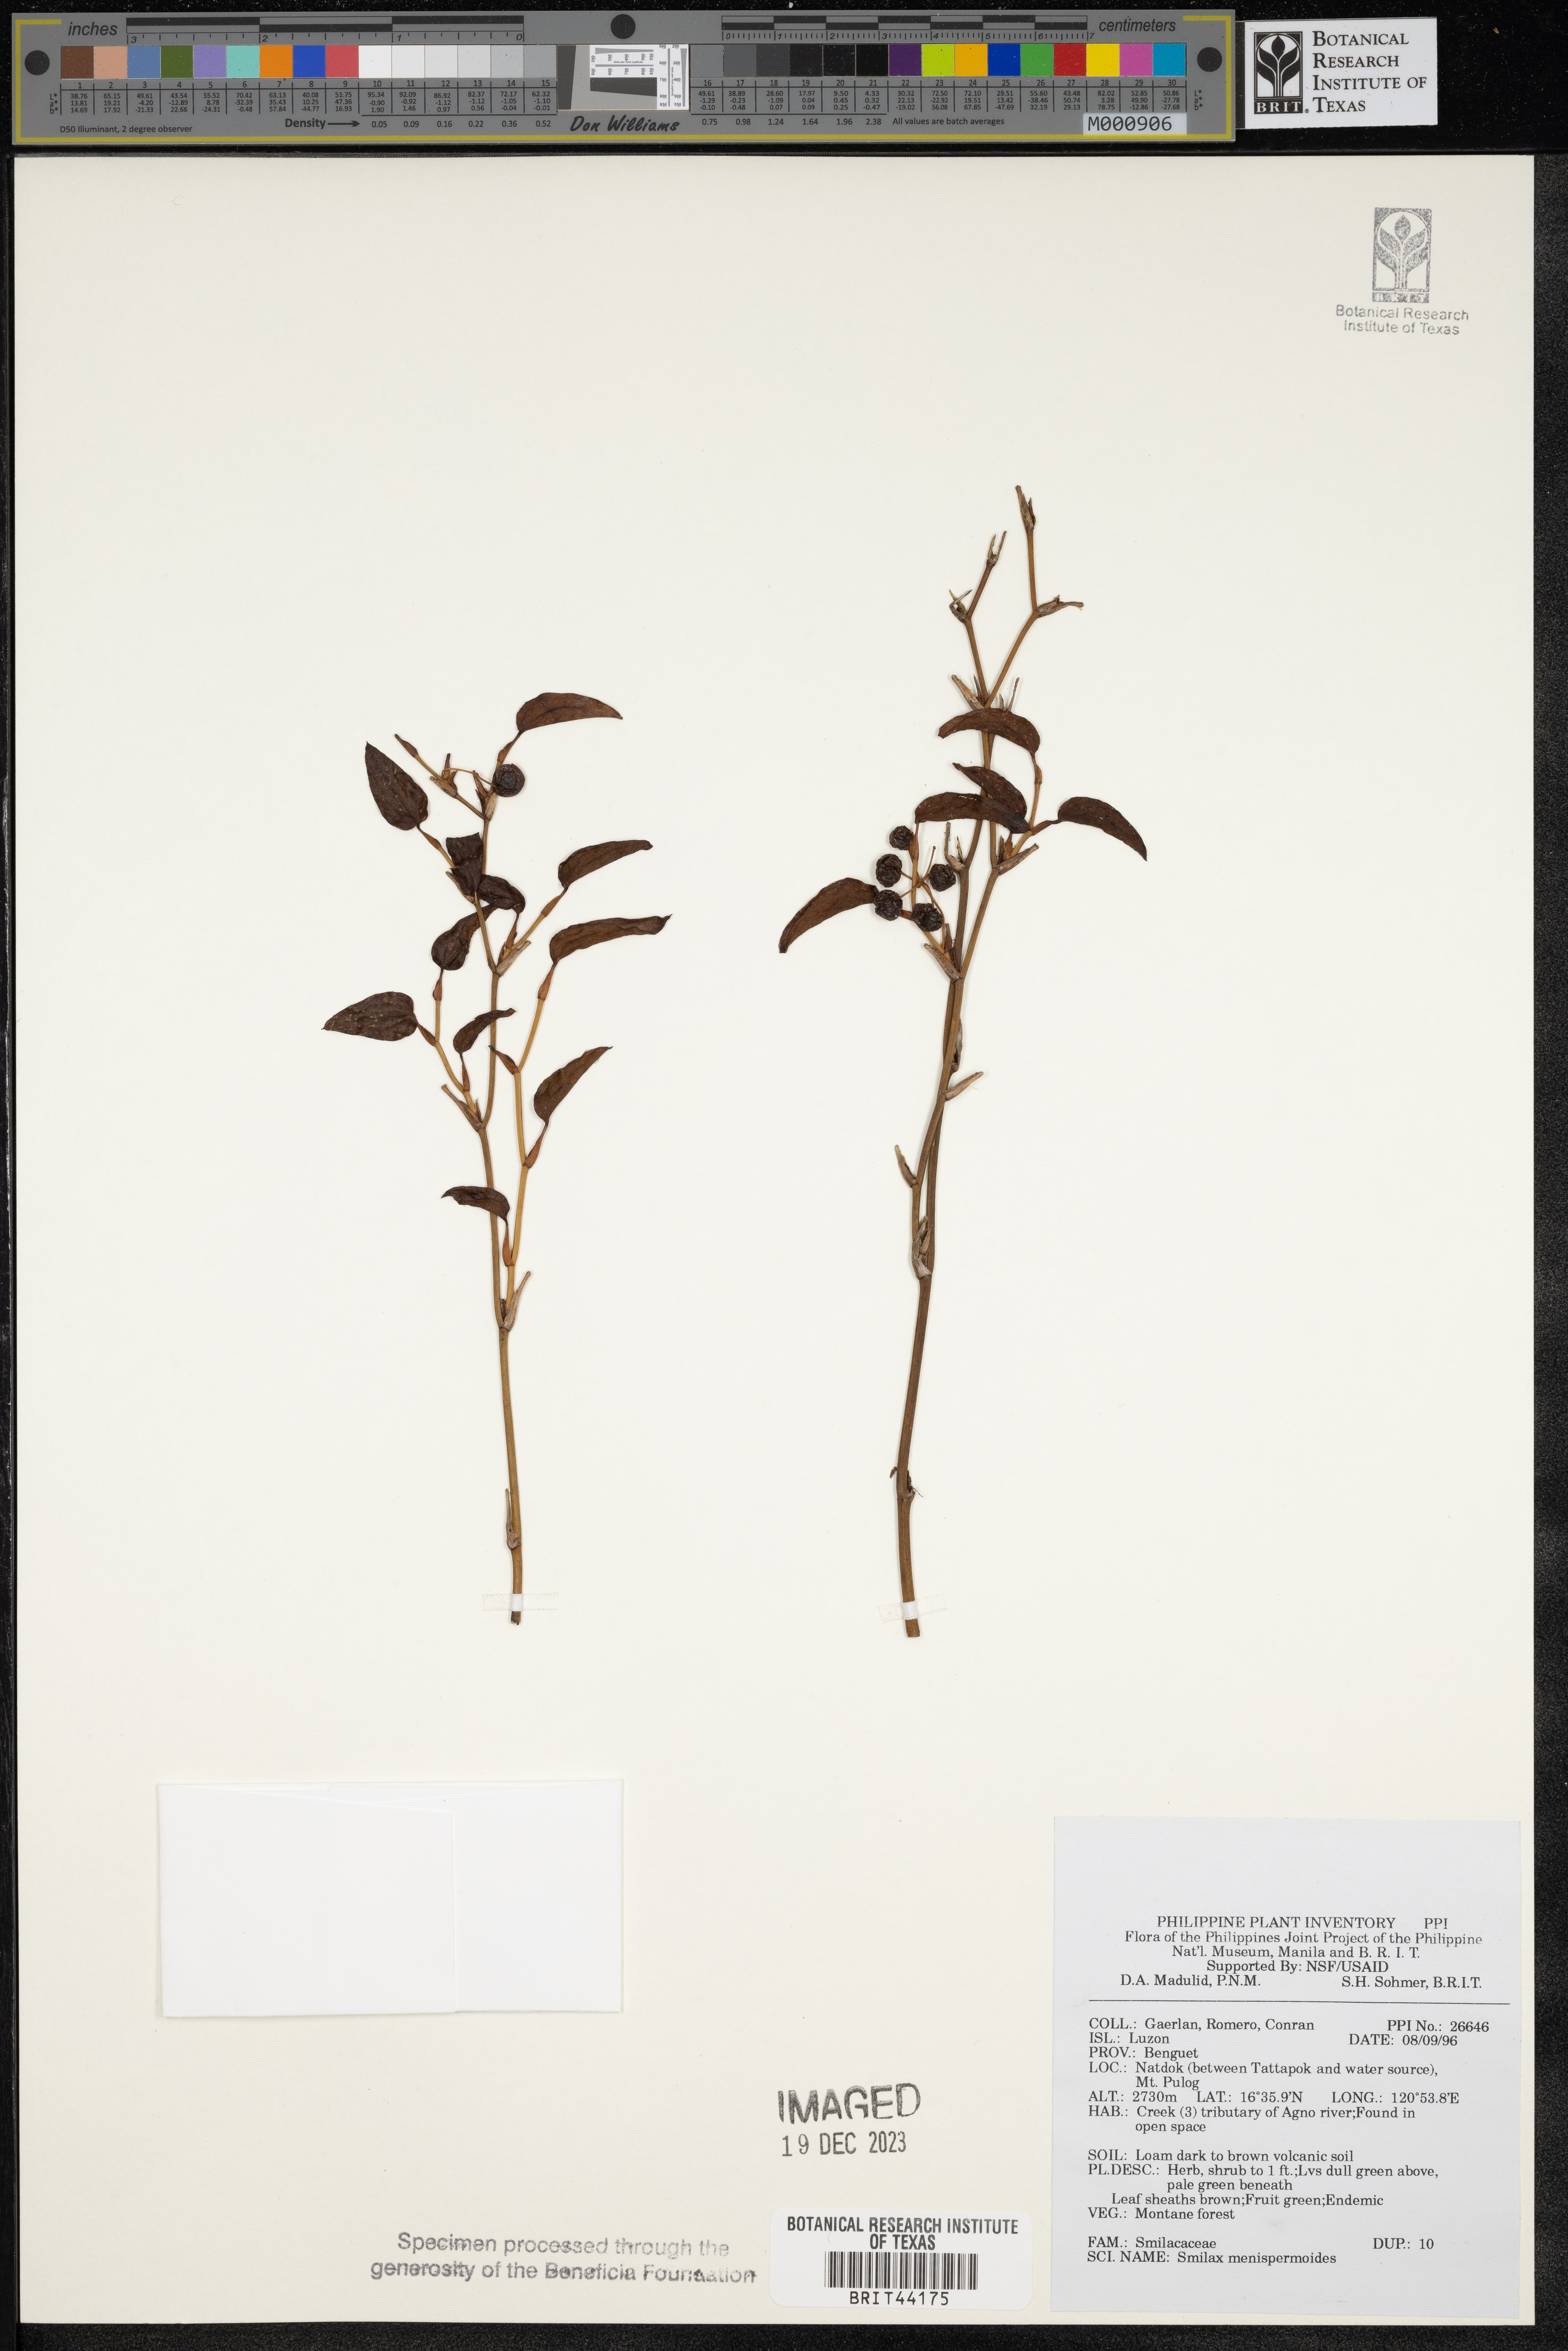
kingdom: Plantae
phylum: Tracheophyta
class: Liliopsida
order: Liliales
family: Smilacaceae
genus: Smilax
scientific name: Smilax menispermoides
